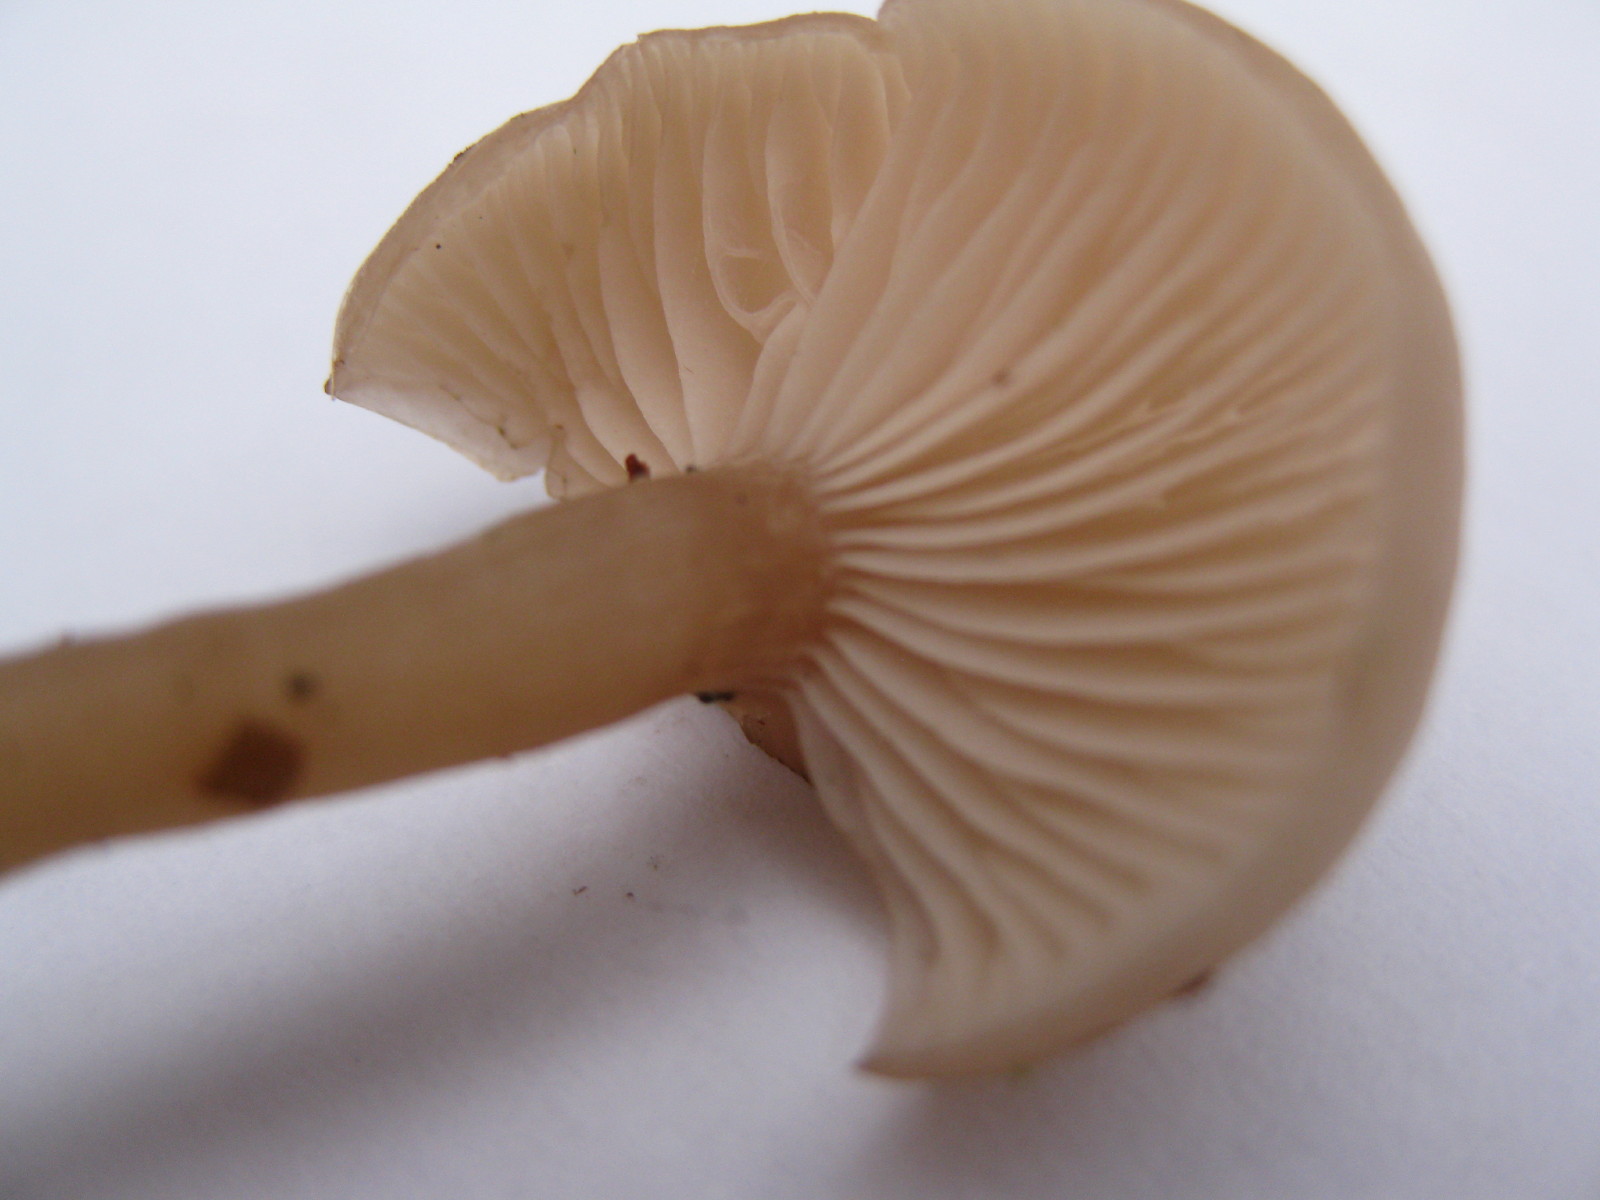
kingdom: Fungi
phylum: Basidiomycota
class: Agaricomycetes
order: Agaricales
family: Tricholomataceae
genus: Clitocybe
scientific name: Clitocybe fragrans
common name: vellugtende tragthat
